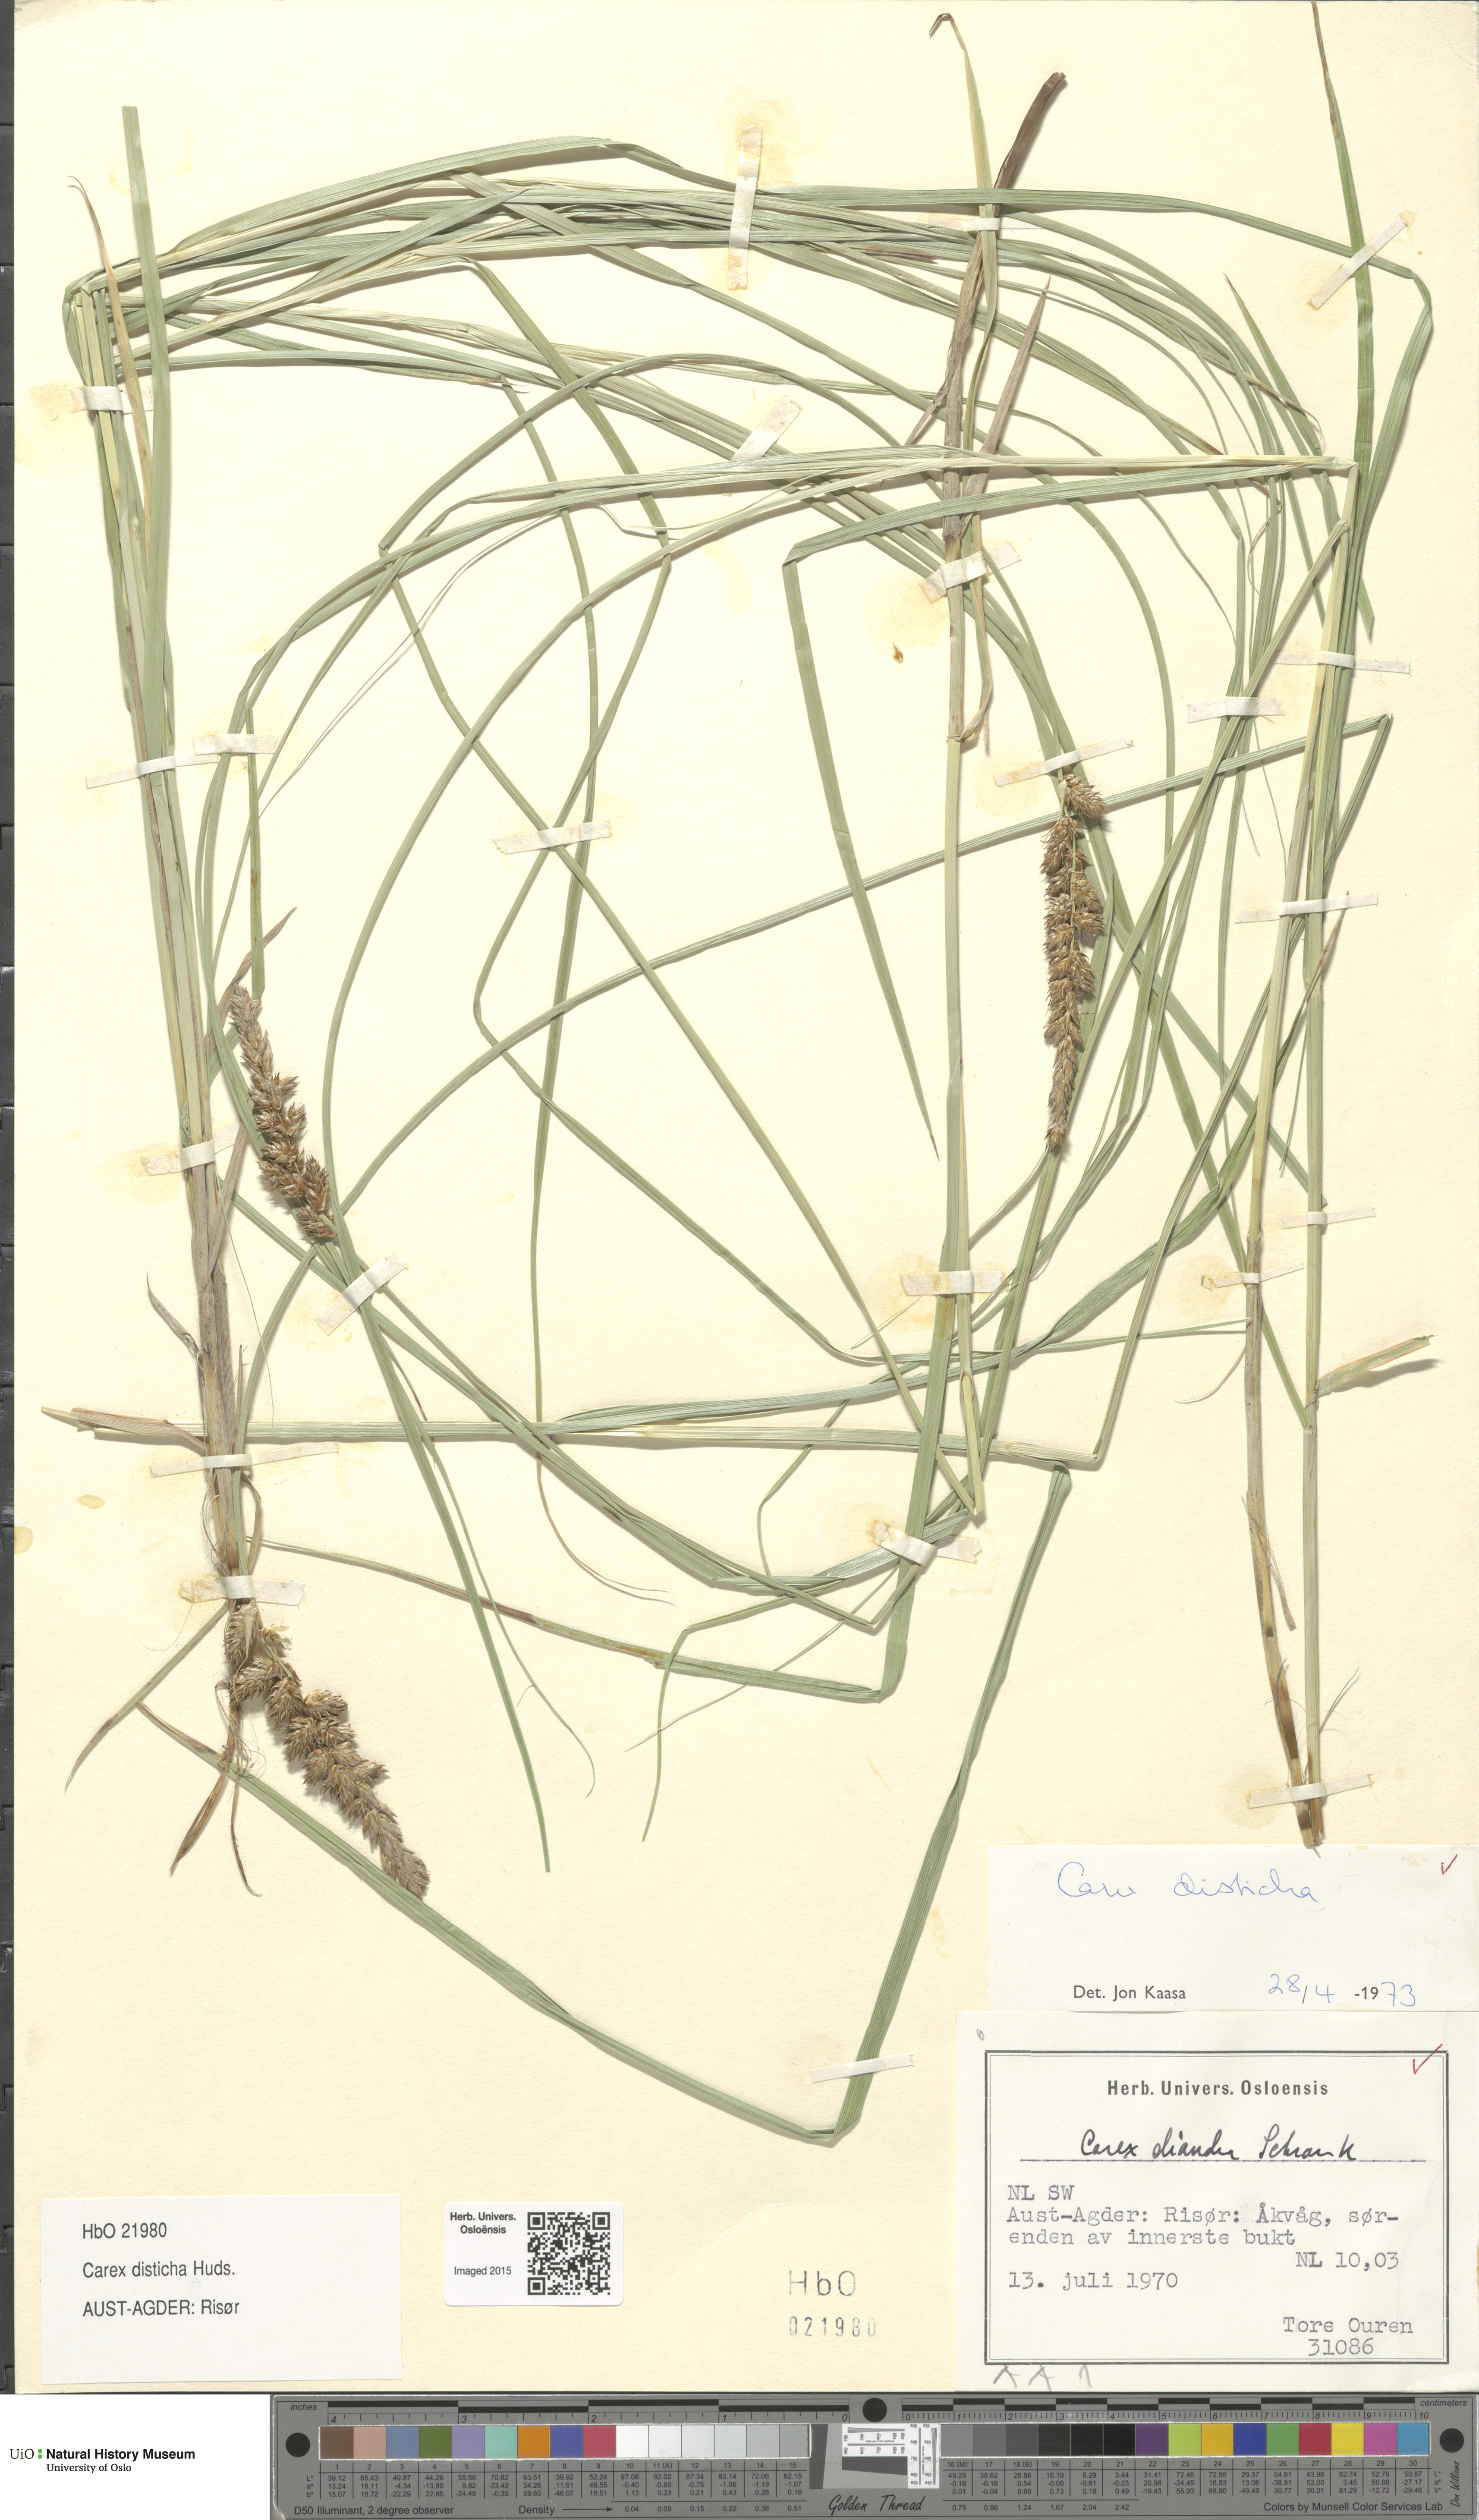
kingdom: Plantae
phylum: Tracheophyta
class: Liliopsida
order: Poales
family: Cyperaceae
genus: Carex
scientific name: Carex disticha
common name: Brown sedge
